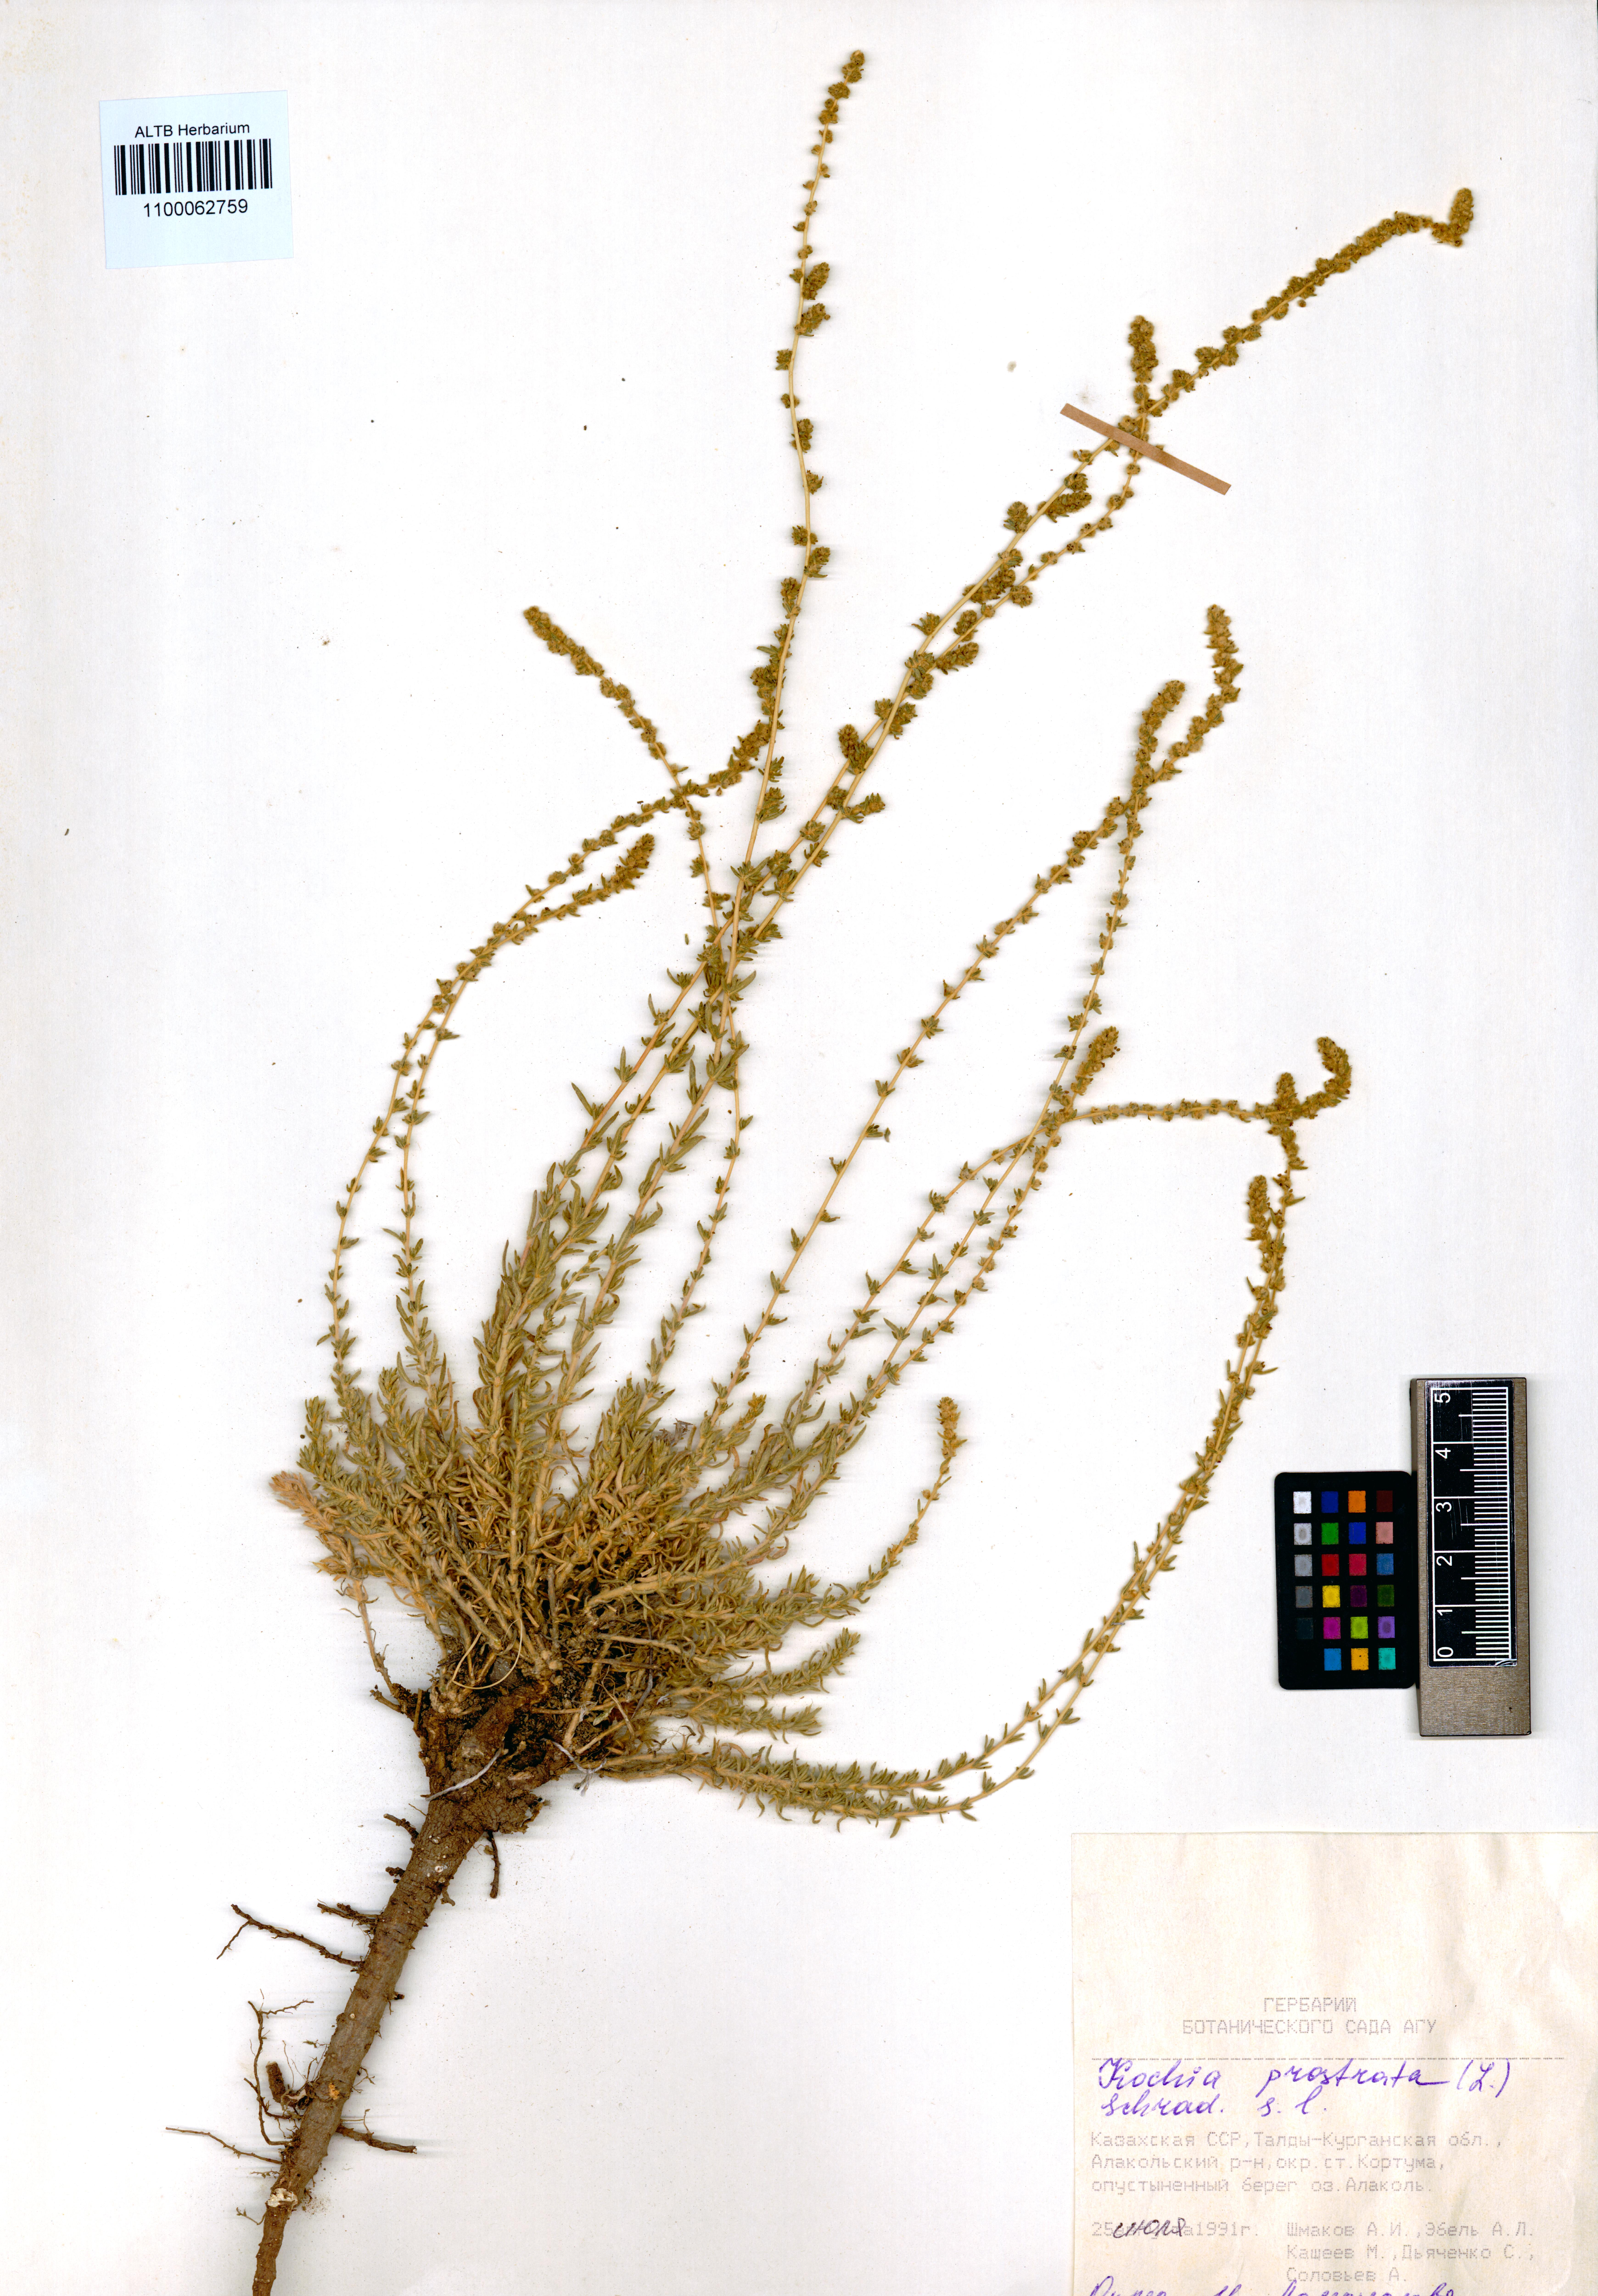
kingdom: Plantae
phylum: Tracheophyta
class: Magnoliopsida
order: Caryophyllales
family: Amaranthaceae
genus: Bassia
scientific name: Bassia prostrata
